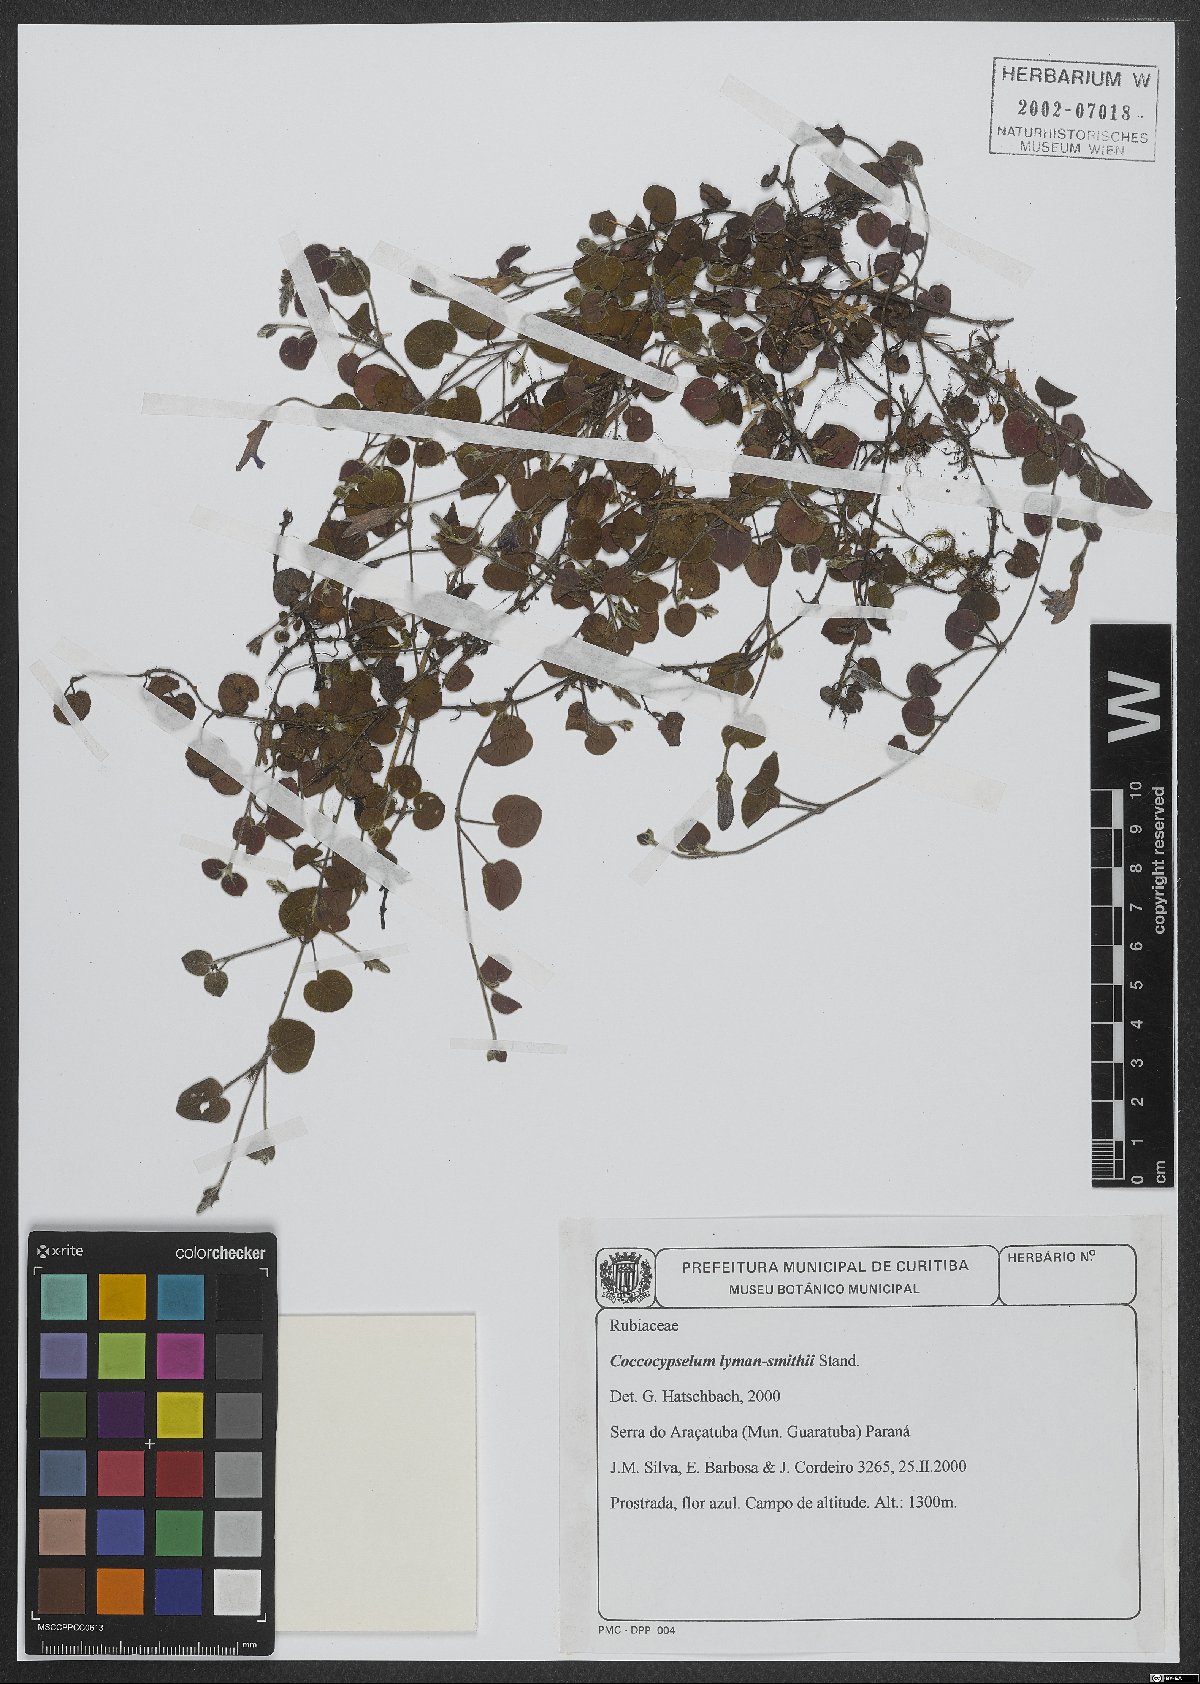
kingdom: Plantae
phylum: Tracheophyta
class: Magnoliopsida
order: Gentianales
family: Rubiaceae
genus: Coccocypselum
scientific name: Coccocypselum lymansmithii
